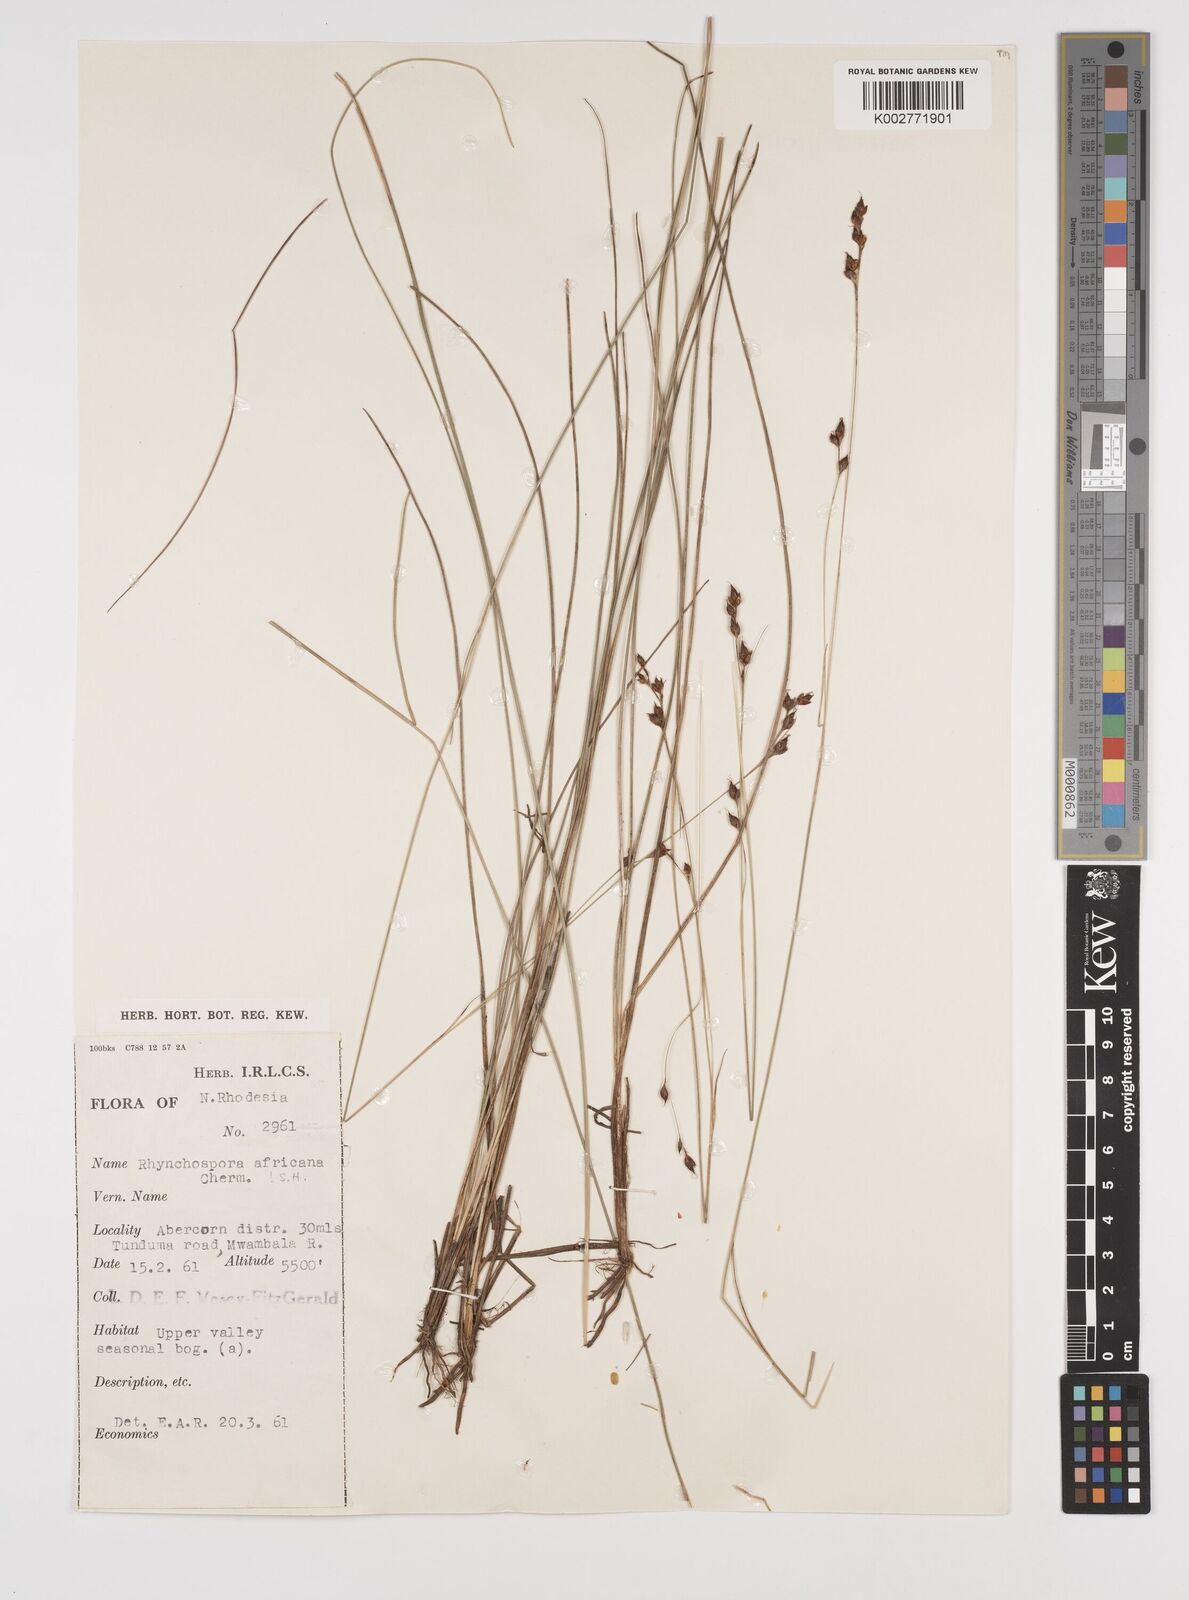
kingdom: Plantae
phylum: Tracheophyta
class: Liliopsida
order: Poales
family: Cyperaceae
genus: Rhynchospora
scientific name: Rhynchospora angolensis
